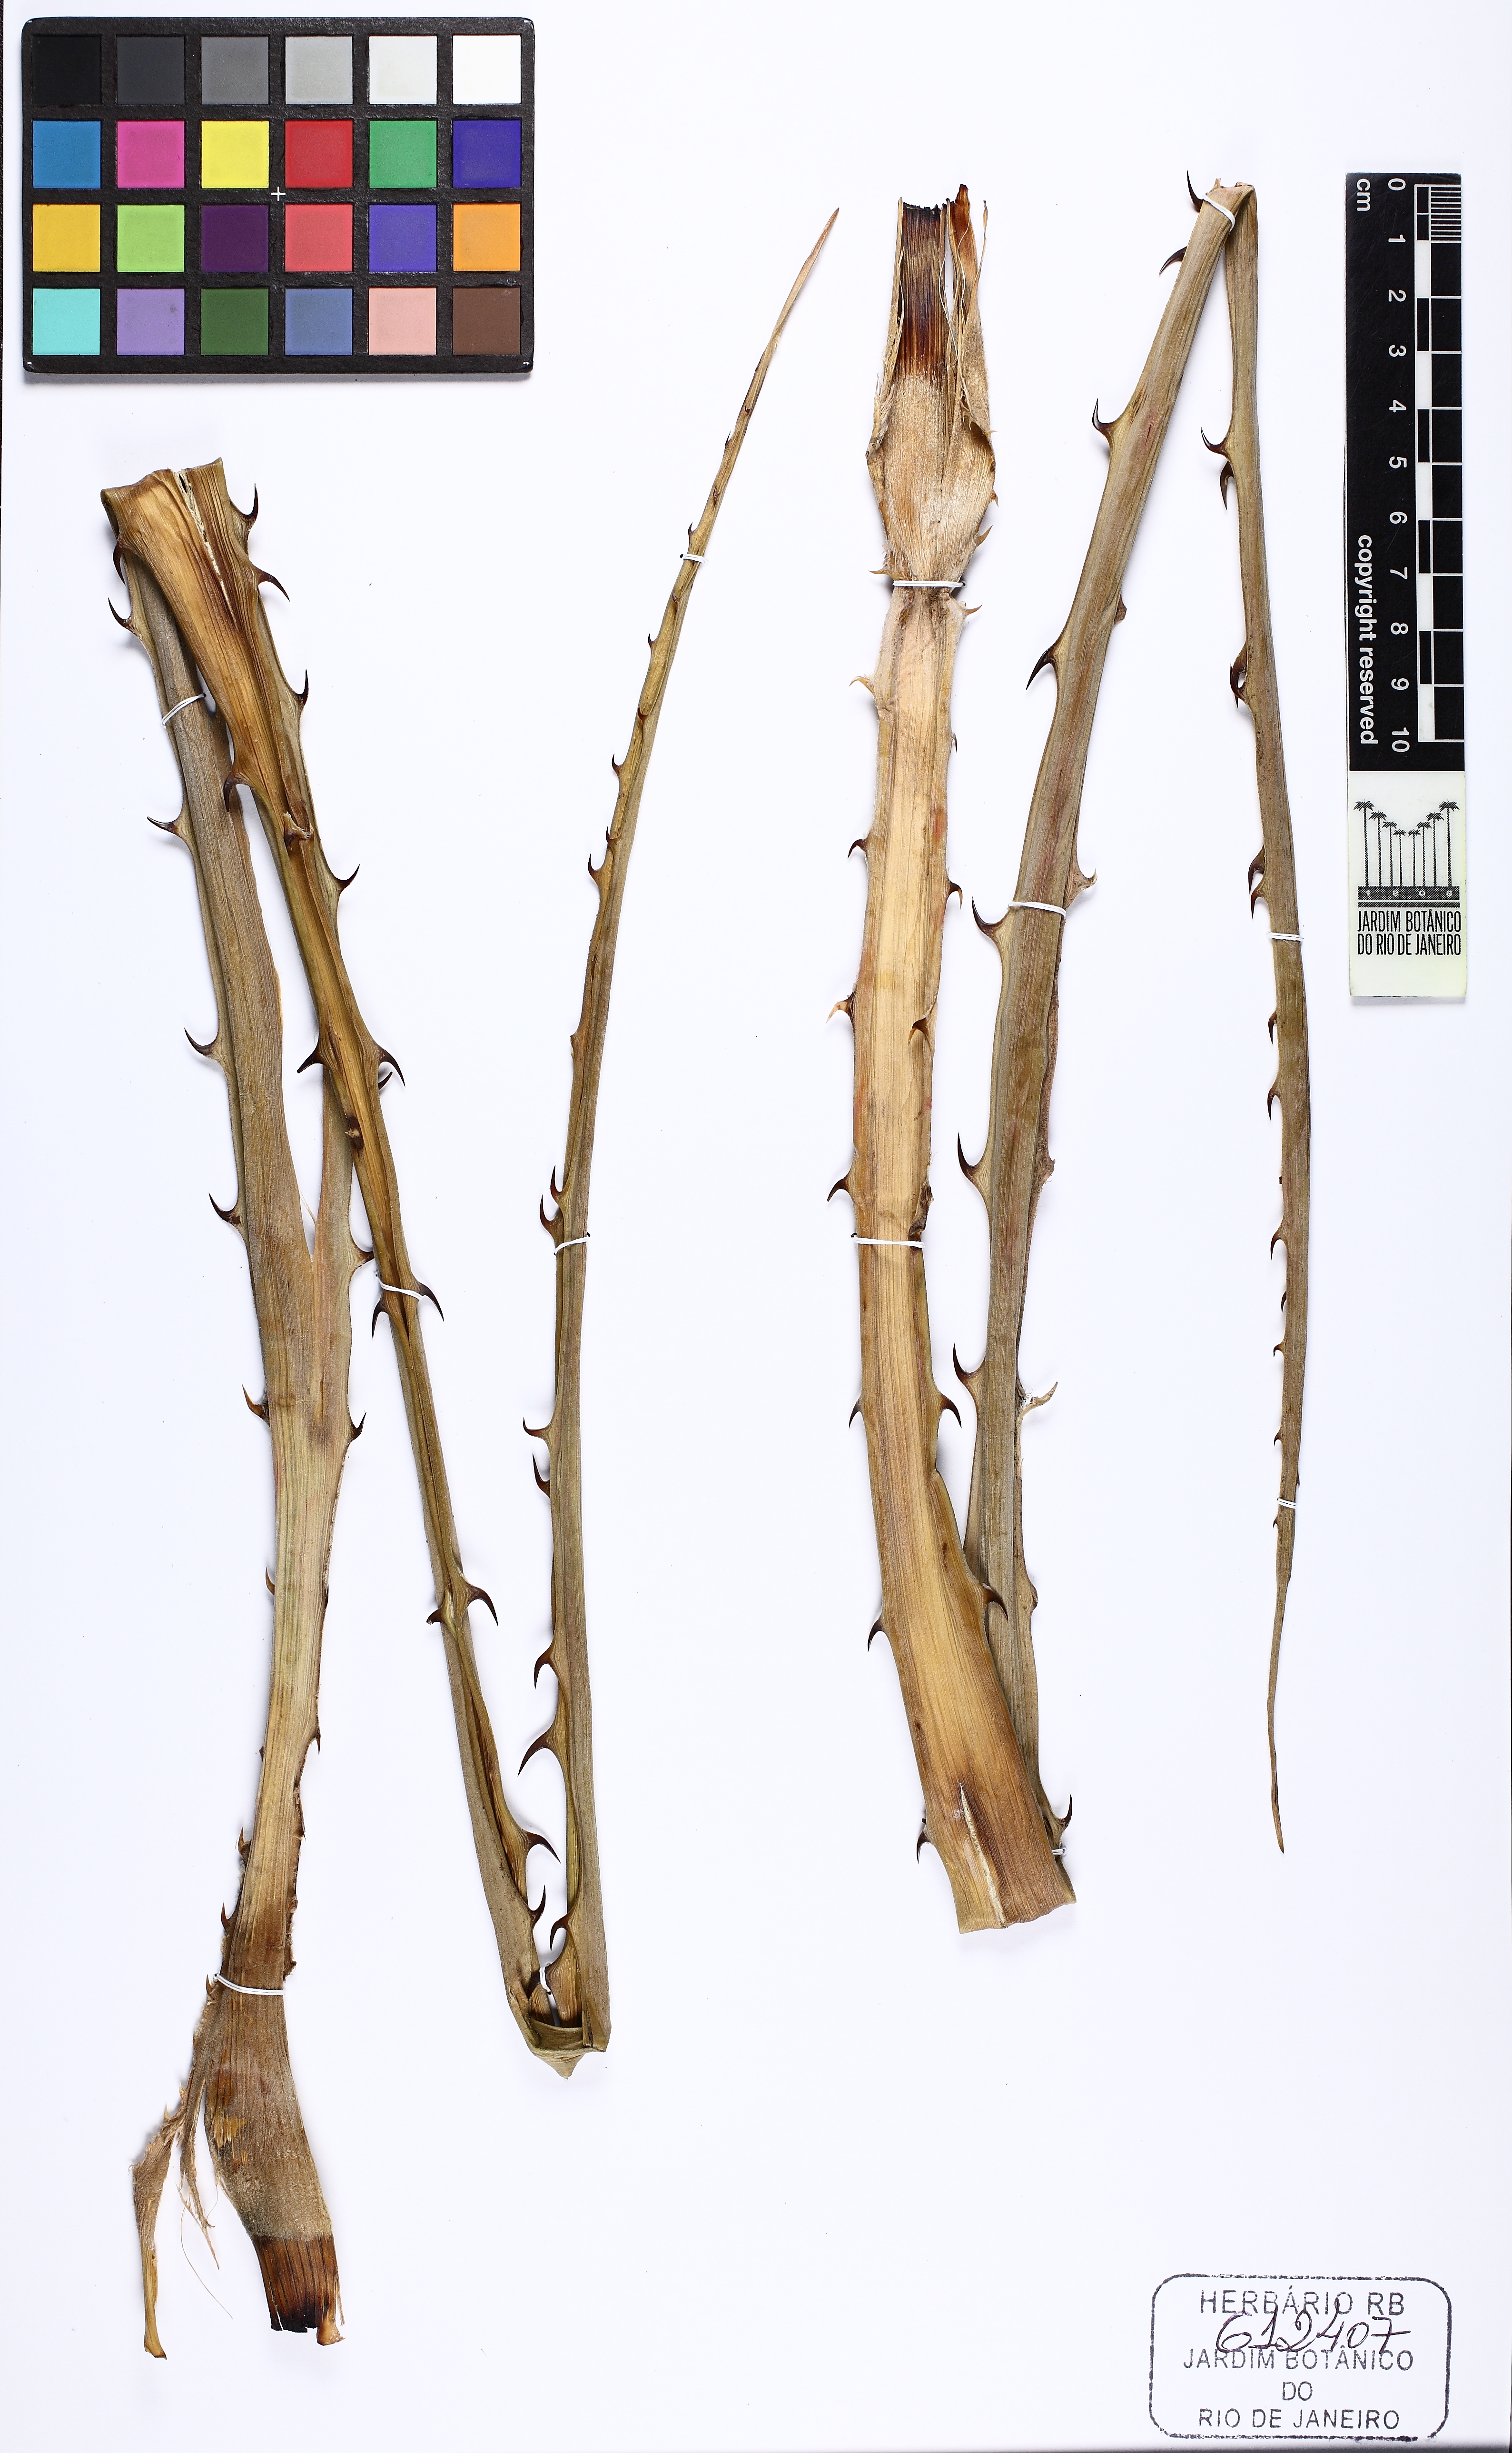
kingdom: Plantae
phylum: Tracheophyta
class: Liliopsida
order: Poales
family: Bromeliaceae
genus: Bromelia
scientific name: Bromelia serra
